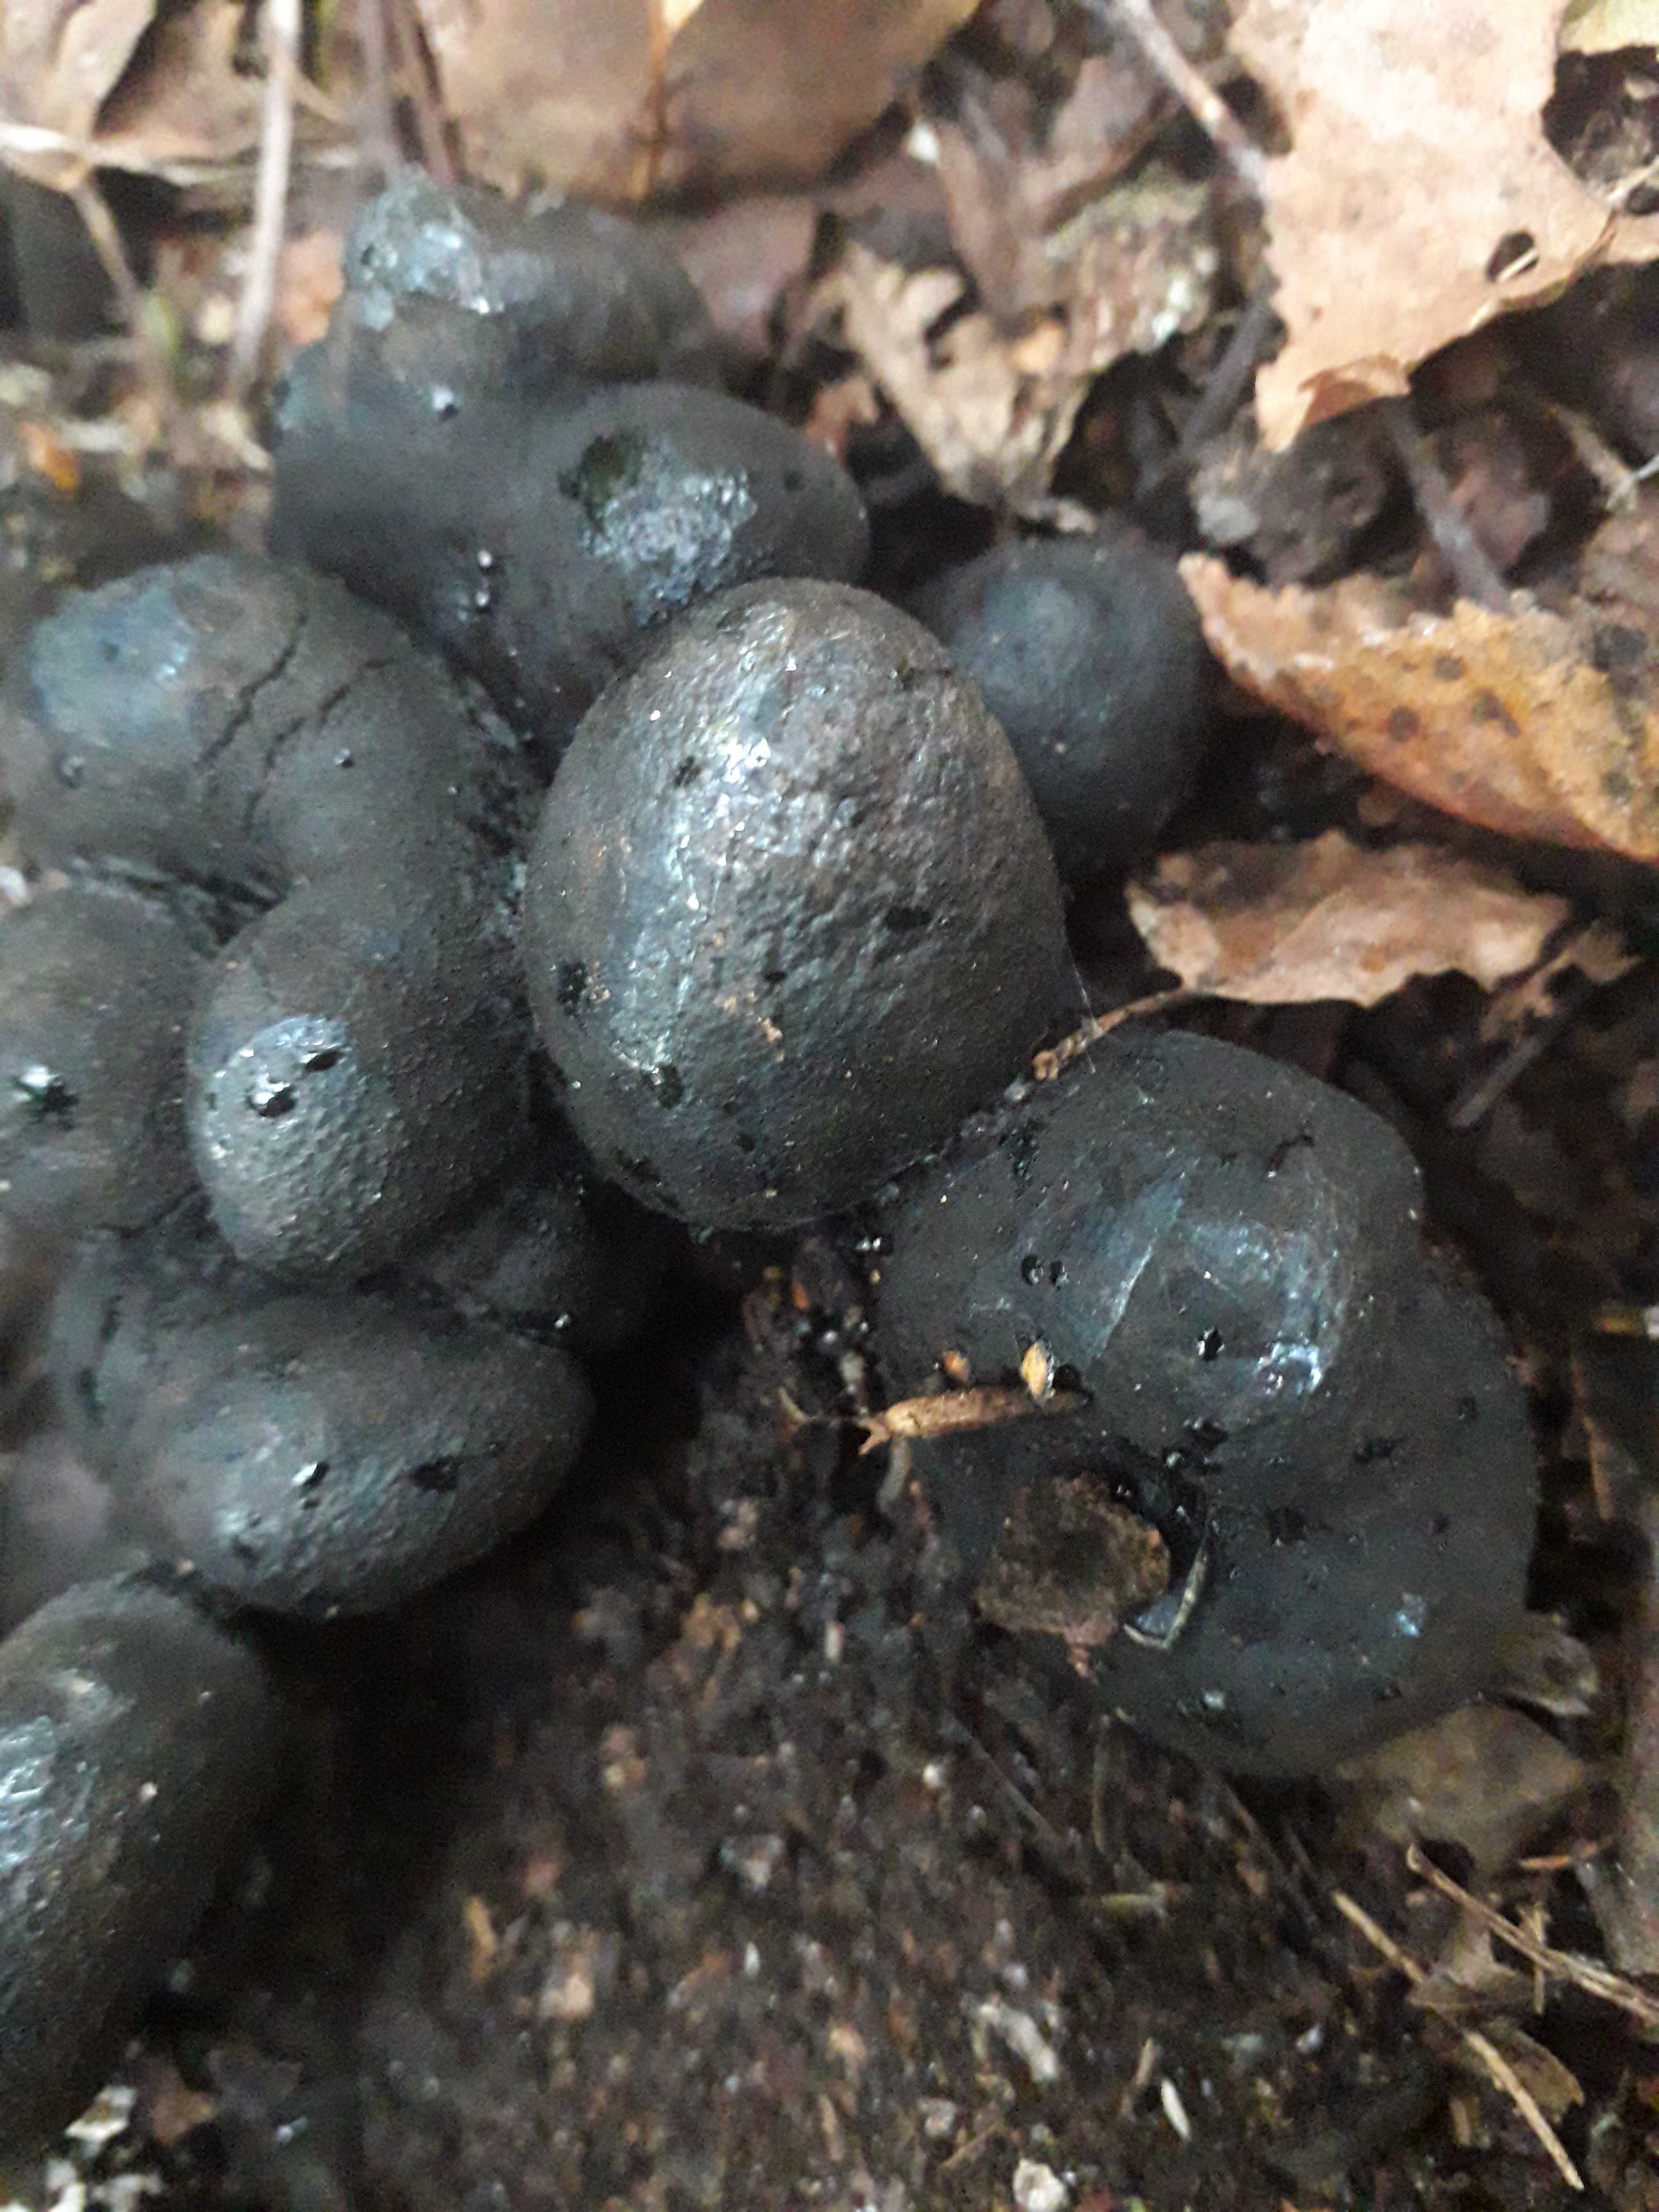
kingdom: Fungi
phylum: Ascomycota
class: Sordariomycetes
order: Xylariales
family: Xylariaceae
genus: Xylaria
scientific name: Xylaria polymorpha
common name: kølle-stødsvamp
